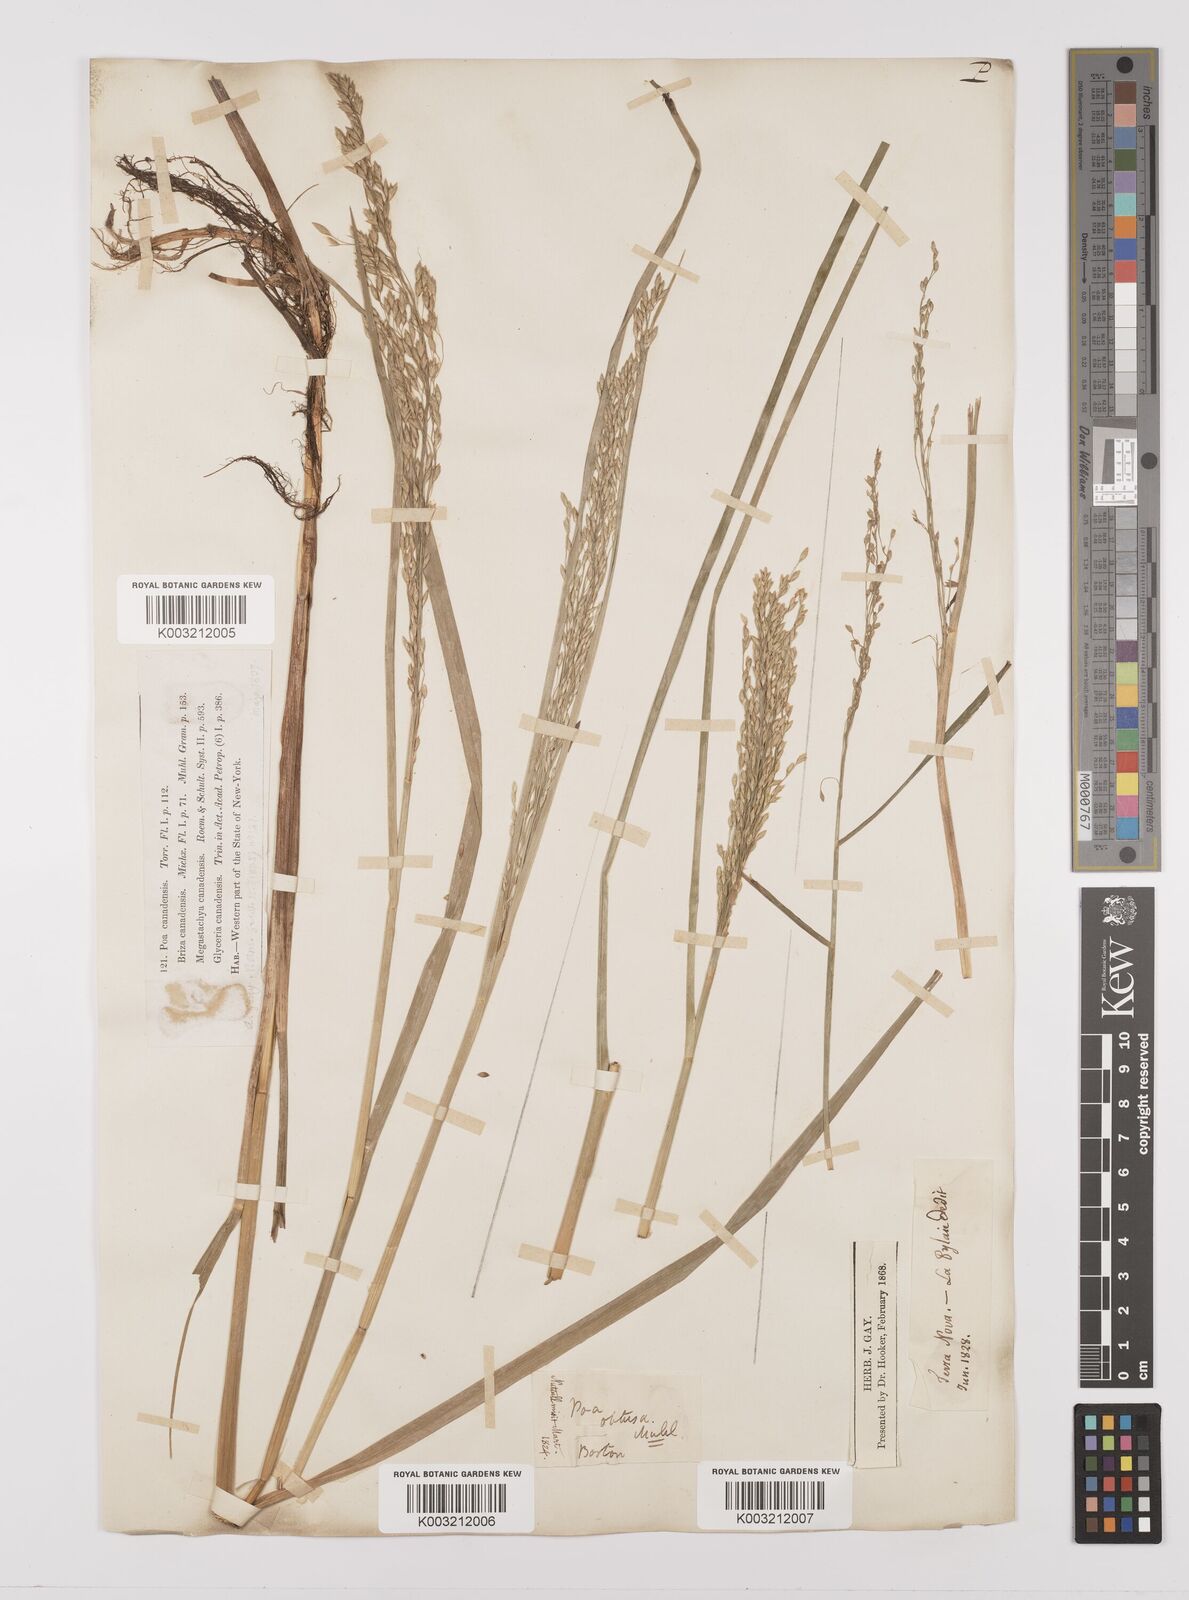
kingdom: Plantae
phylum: Tracheophyta
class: Liliopsida
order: Poales
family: Poaceae
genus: Glyceria
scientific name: Glyceria canadensis
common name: Canada mannagrass
